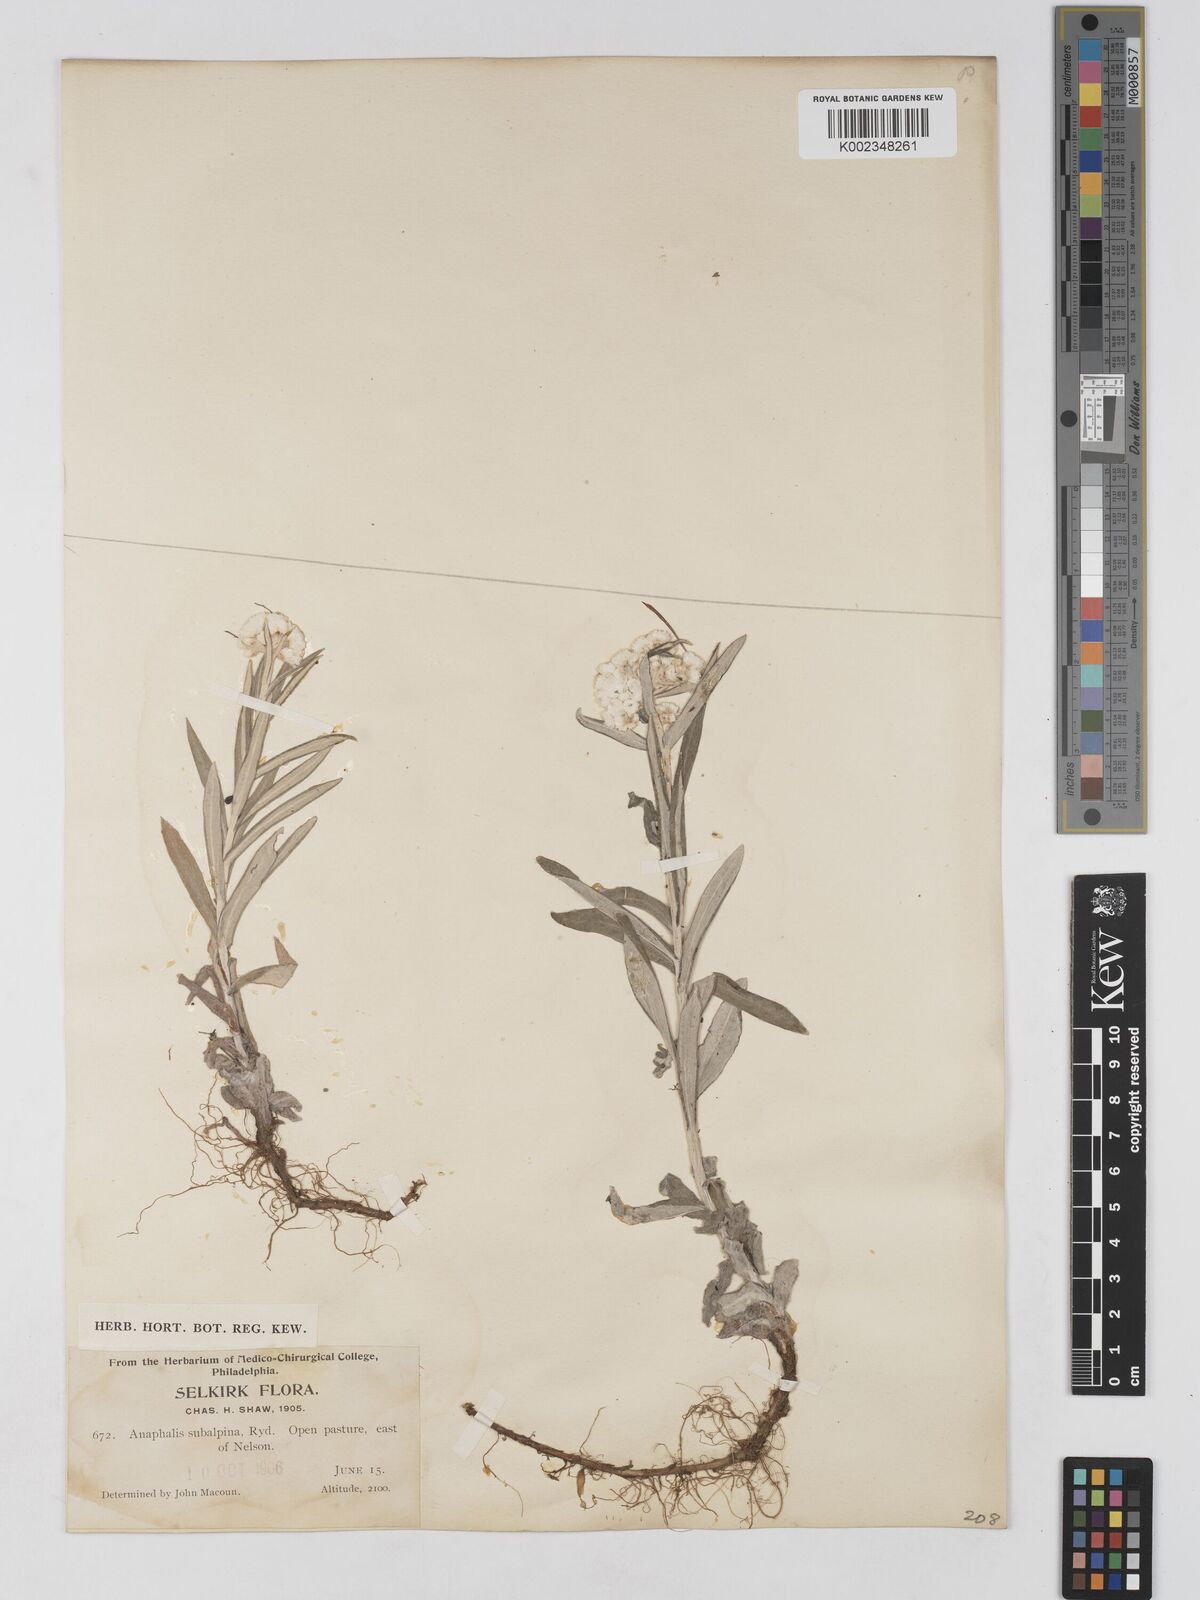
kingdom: Plantae
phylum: Tracheophyta
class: Magnoliopsida
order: Asterales
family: Asteraceae
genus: Anaphalis
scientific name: Anaphalis margaritacea
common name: Pearly everlasting
